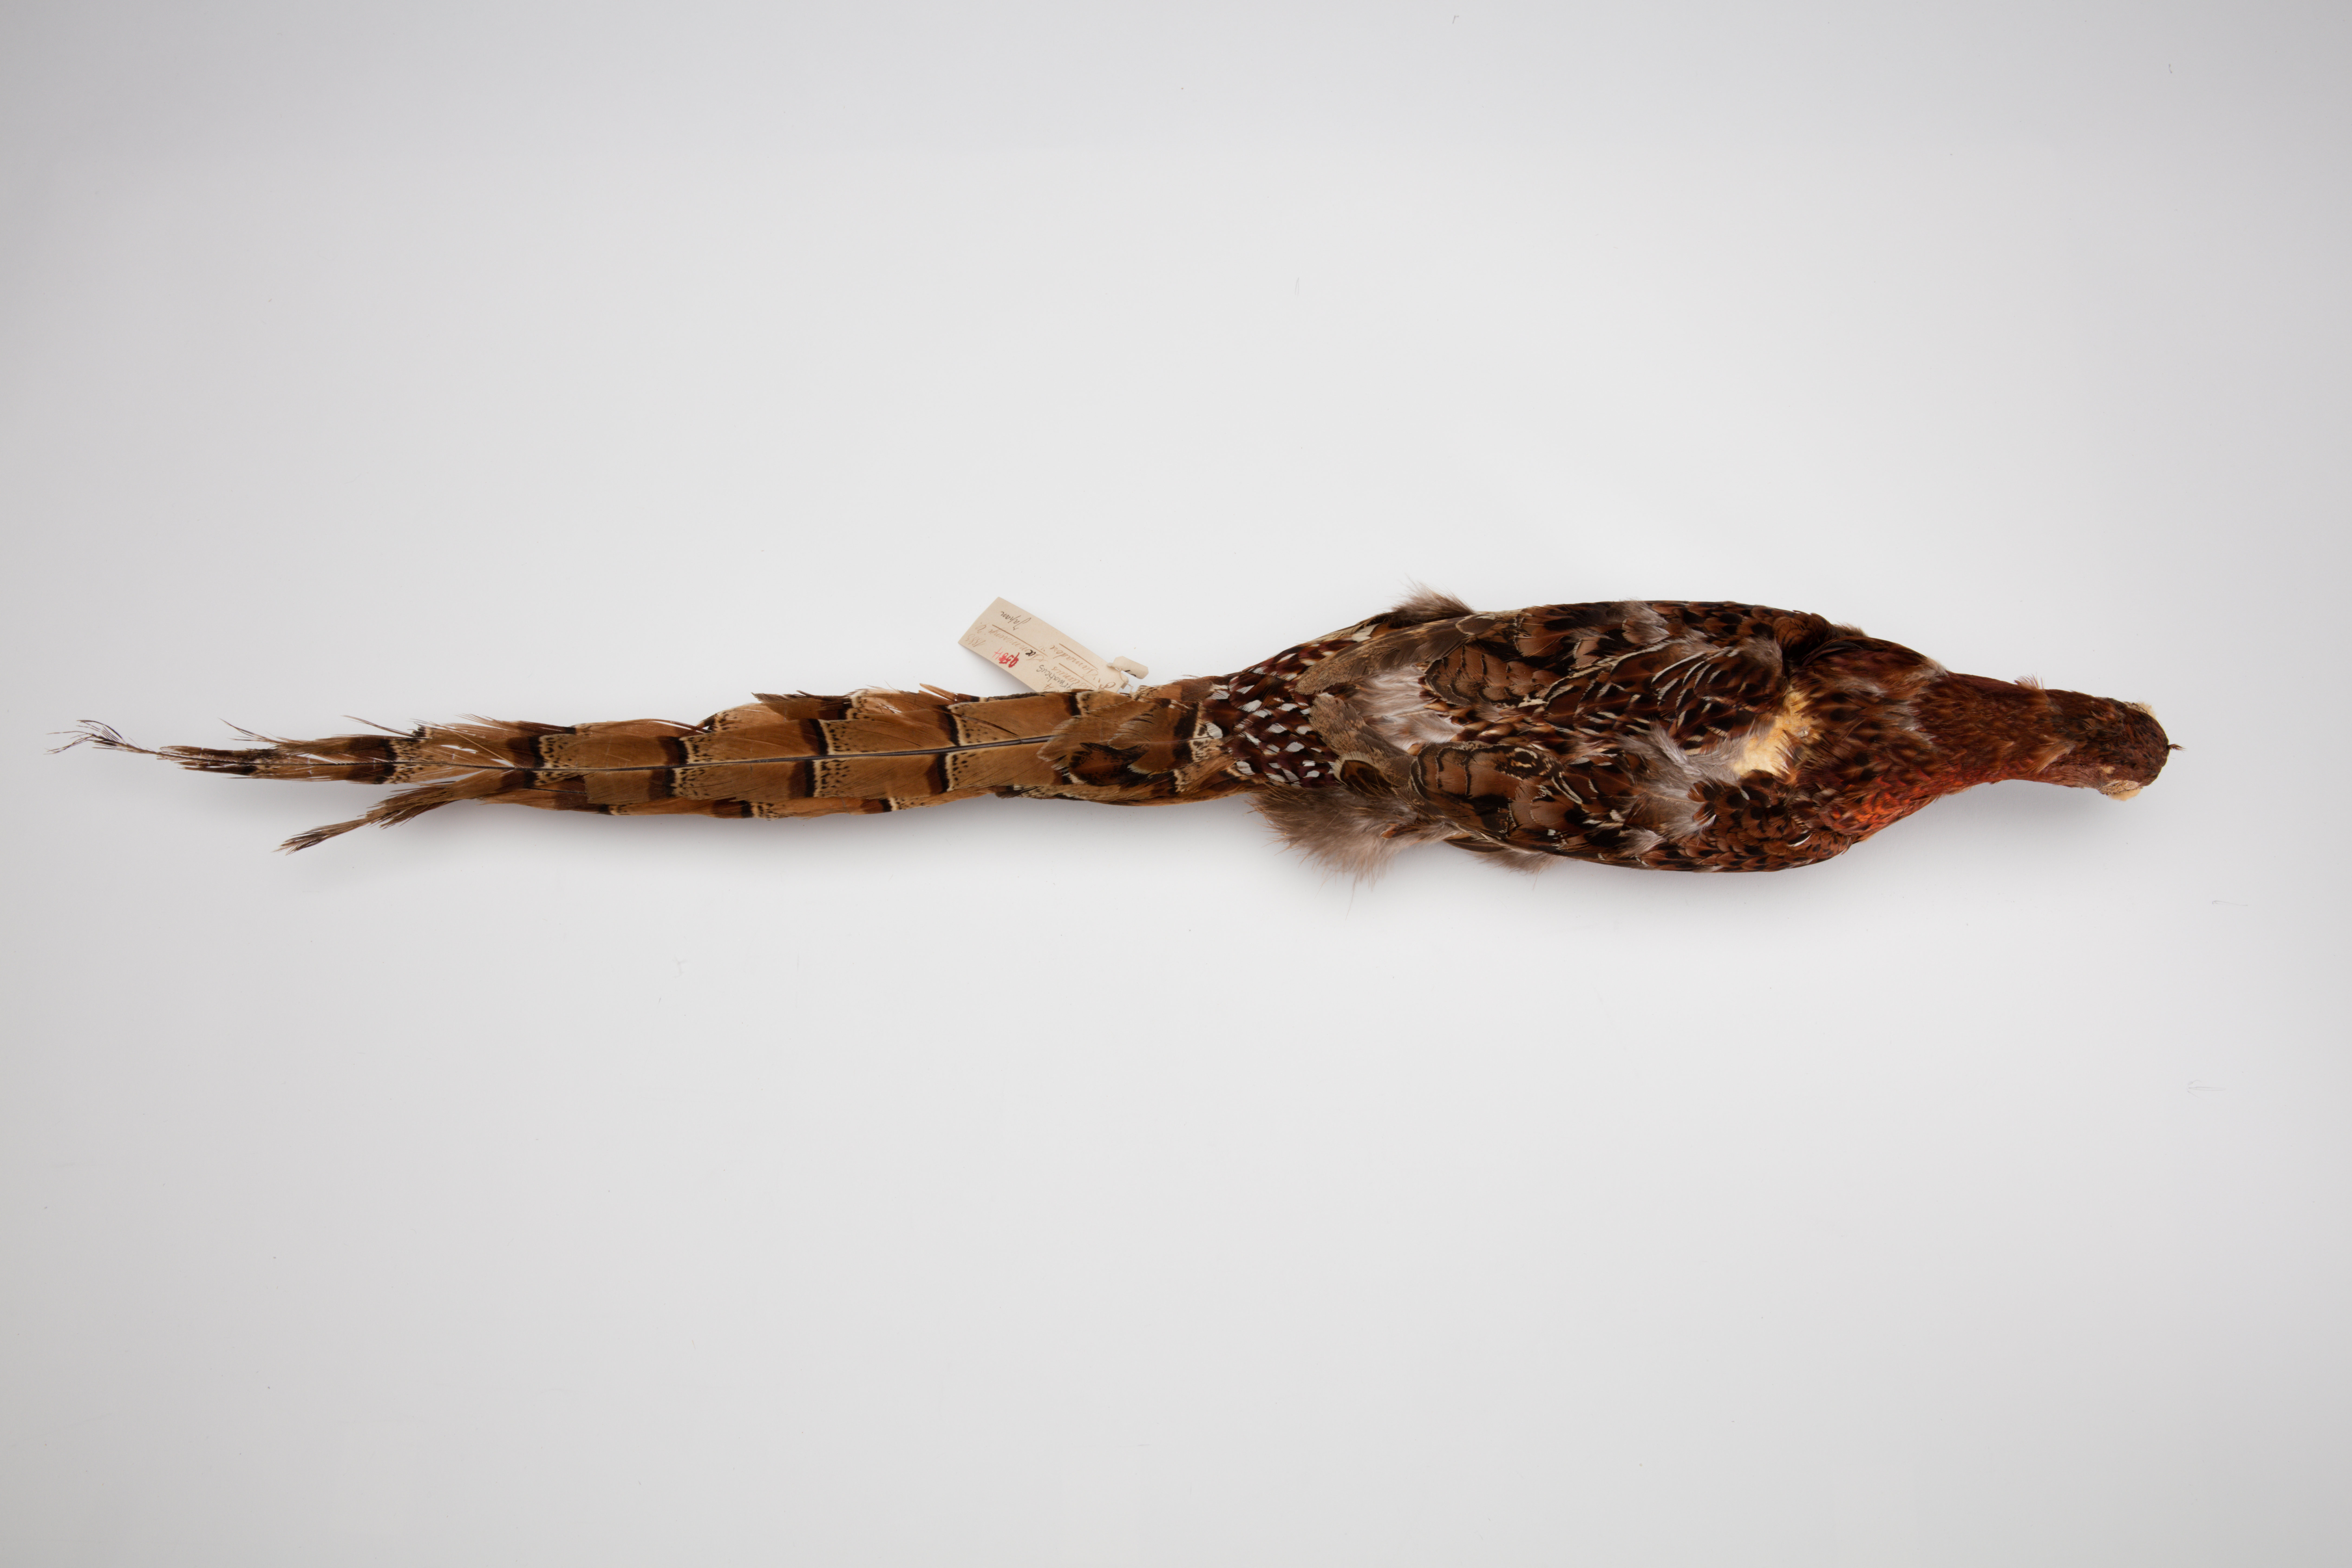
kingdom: Animalia
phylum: Chordata
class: Aves
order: Galliformes
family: Phasianidae
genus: Syrmaticus
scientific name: Syrmaticus soemmerringii
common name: Copper pheasant
